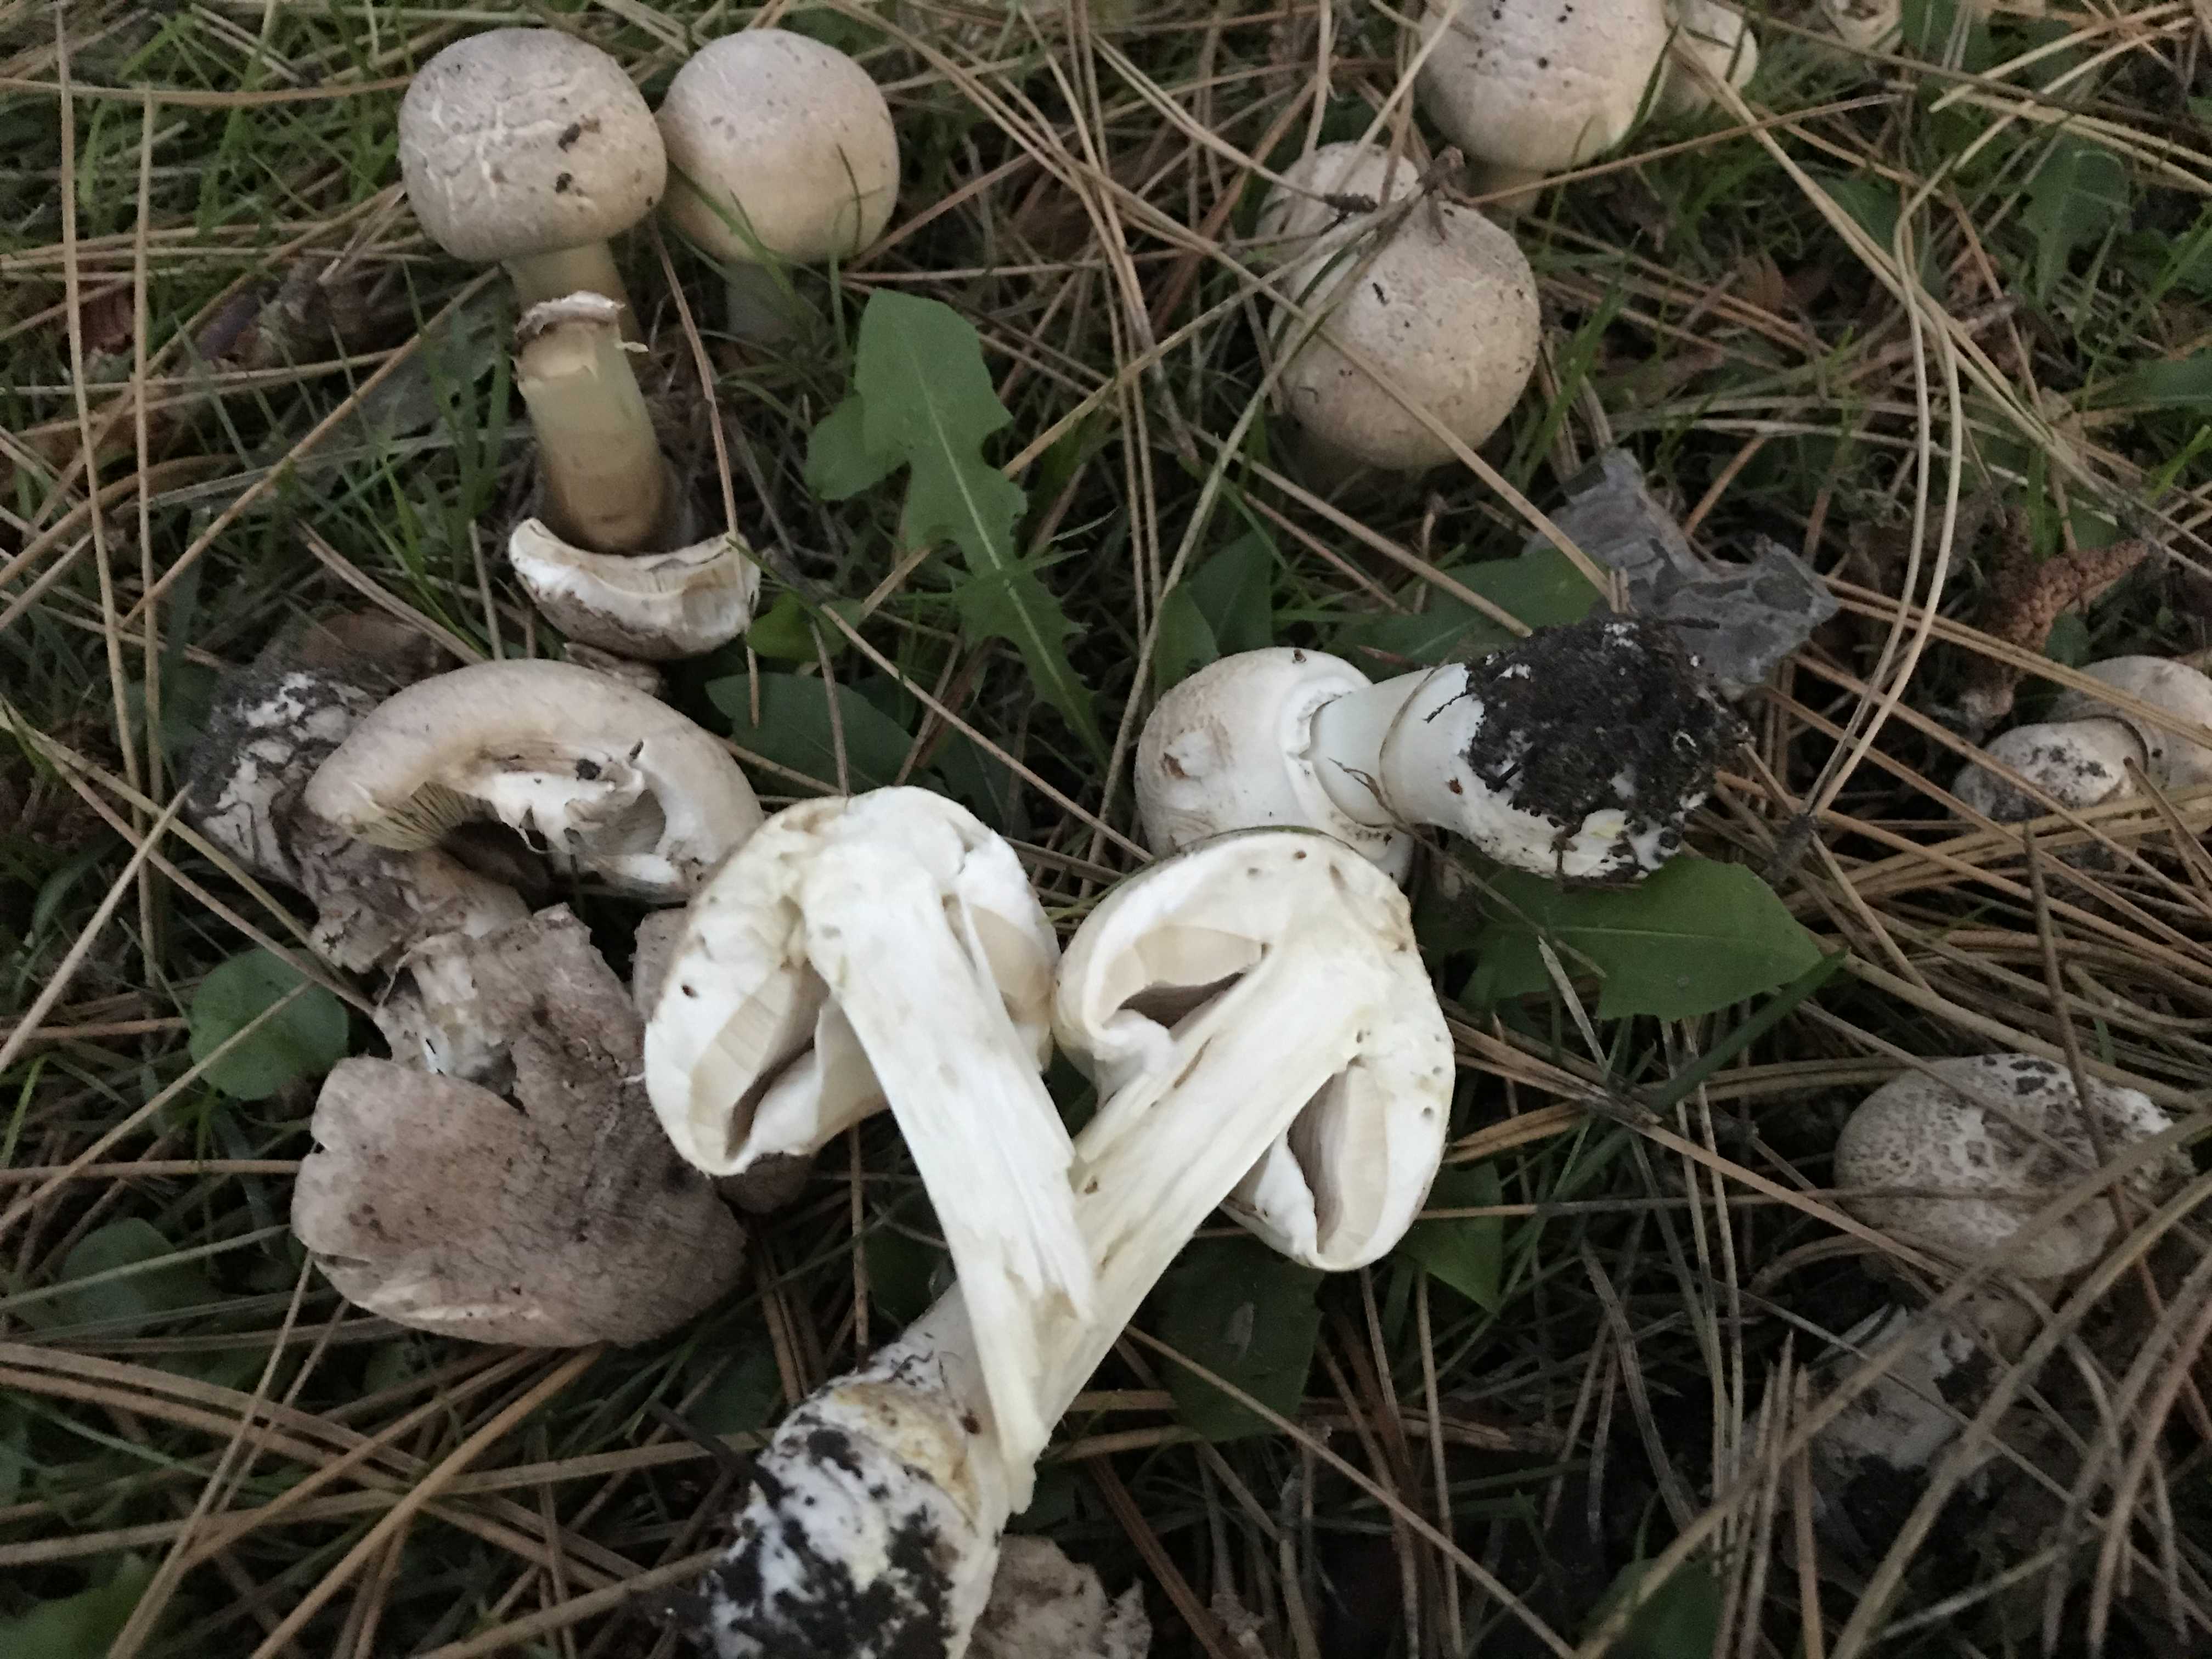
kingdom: Fungi
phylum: Basidiomycota
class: Agaricomycetes
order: Agaricales
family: Agaricaceae
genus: Agaricus
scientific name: Agaricus
